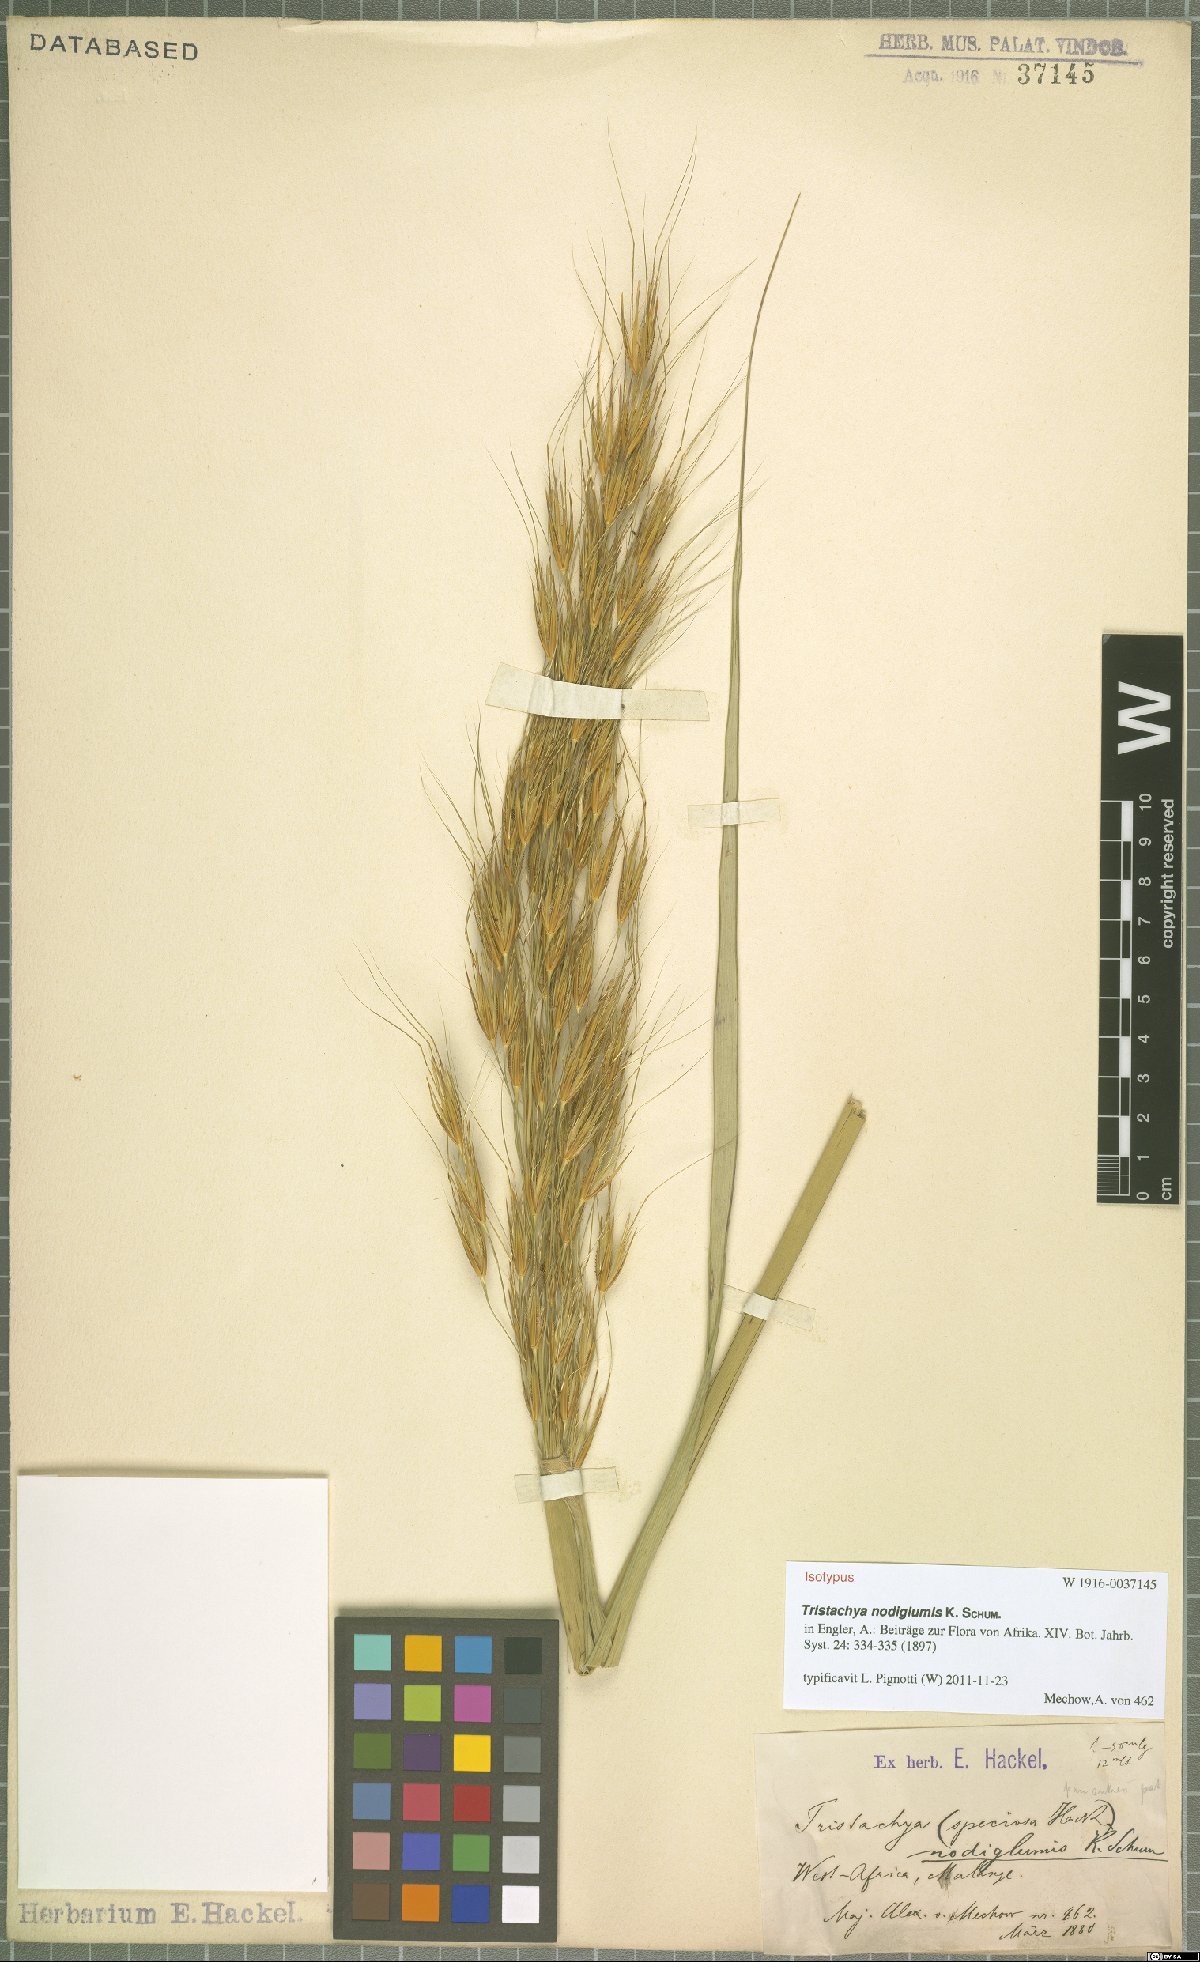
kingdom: Plantae
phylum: Tracheophyta
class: Liliopsida
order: Poales
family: Poaceae
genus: Tristachya
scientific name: Tristachya nodiglumis
